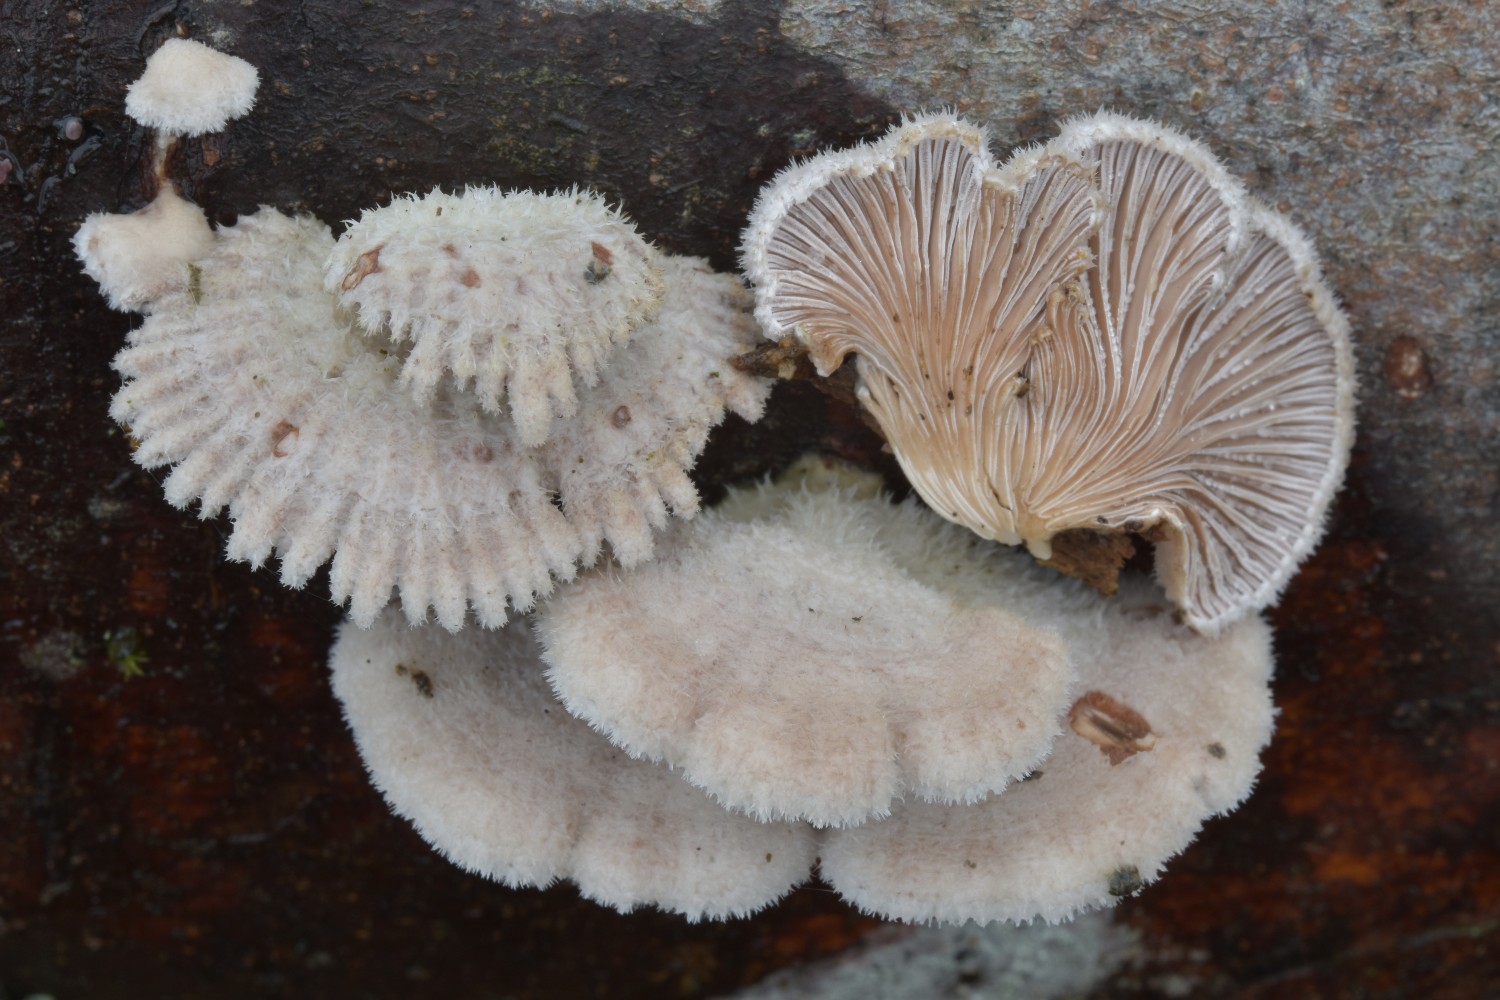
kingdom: Fungi
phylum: Basidiomycota
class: Agaricomycetes
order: Agaricales
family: Schizophyllaceae
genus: Schizophyllum
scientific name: Schizophyllum commune
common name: kløvblad
